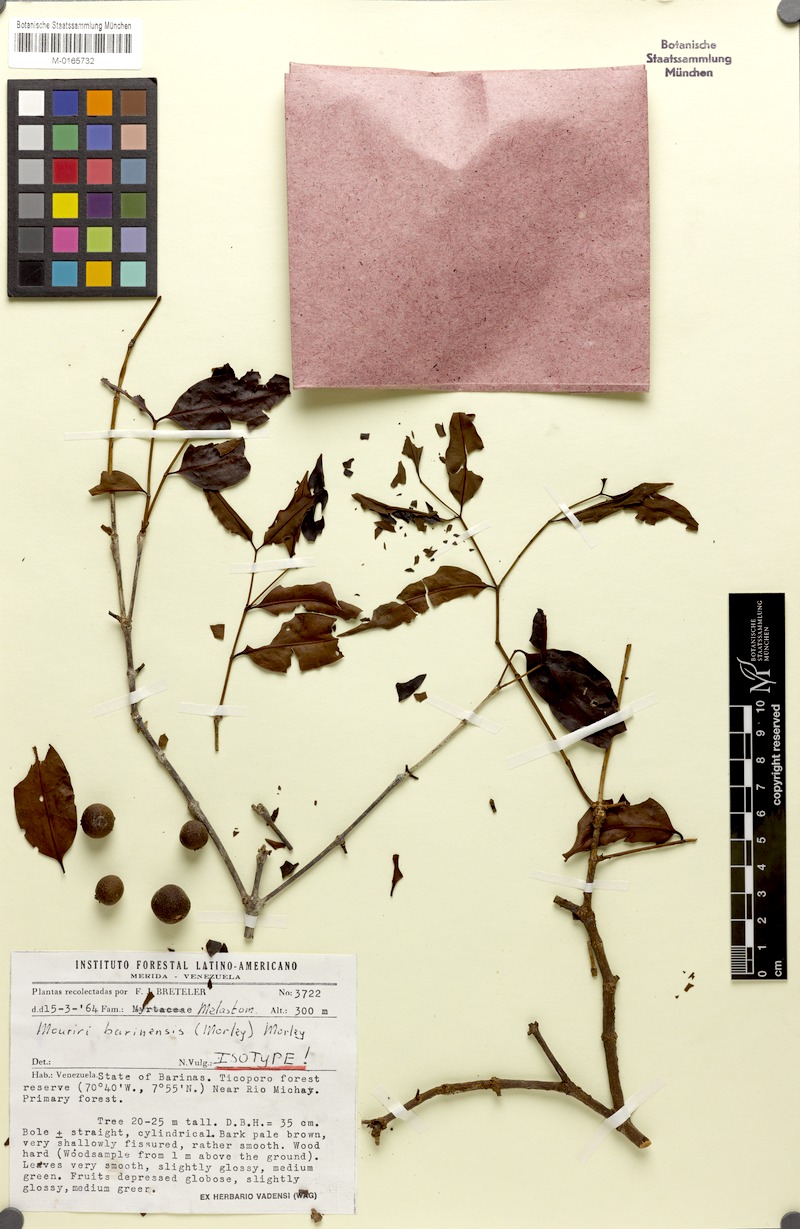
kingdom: Plantae
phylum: Tracheophyta
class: Magnoliopsida
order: Myrtales
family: Melastomataceae
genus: Mouriri
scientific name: Mouriri barinensis
